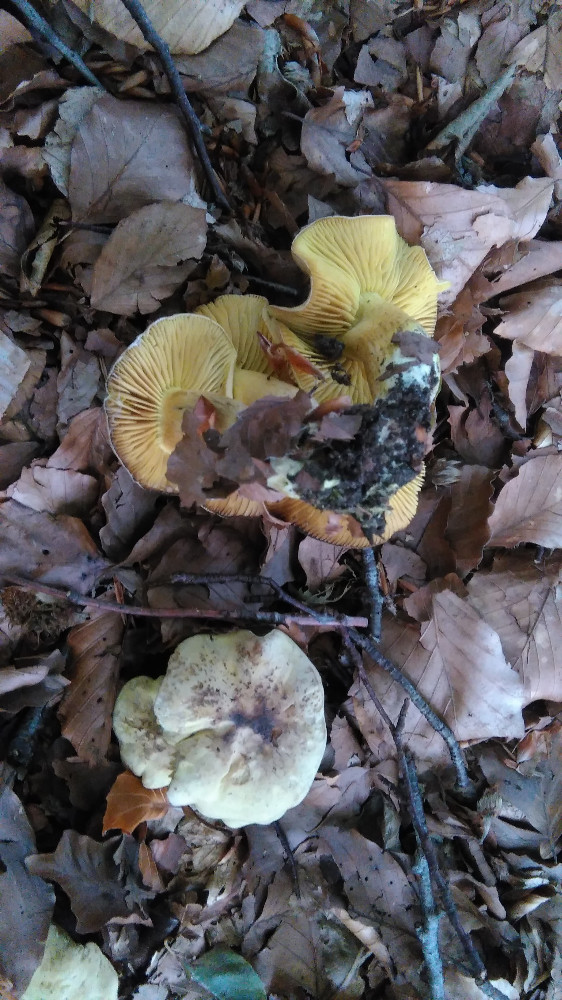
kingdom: Fungi
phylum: Basidiomycota
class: Agaricomycetes
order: Agaricales
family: Tricholomataceae
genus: Tricholoma
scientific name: Tricholoma sulphureum
